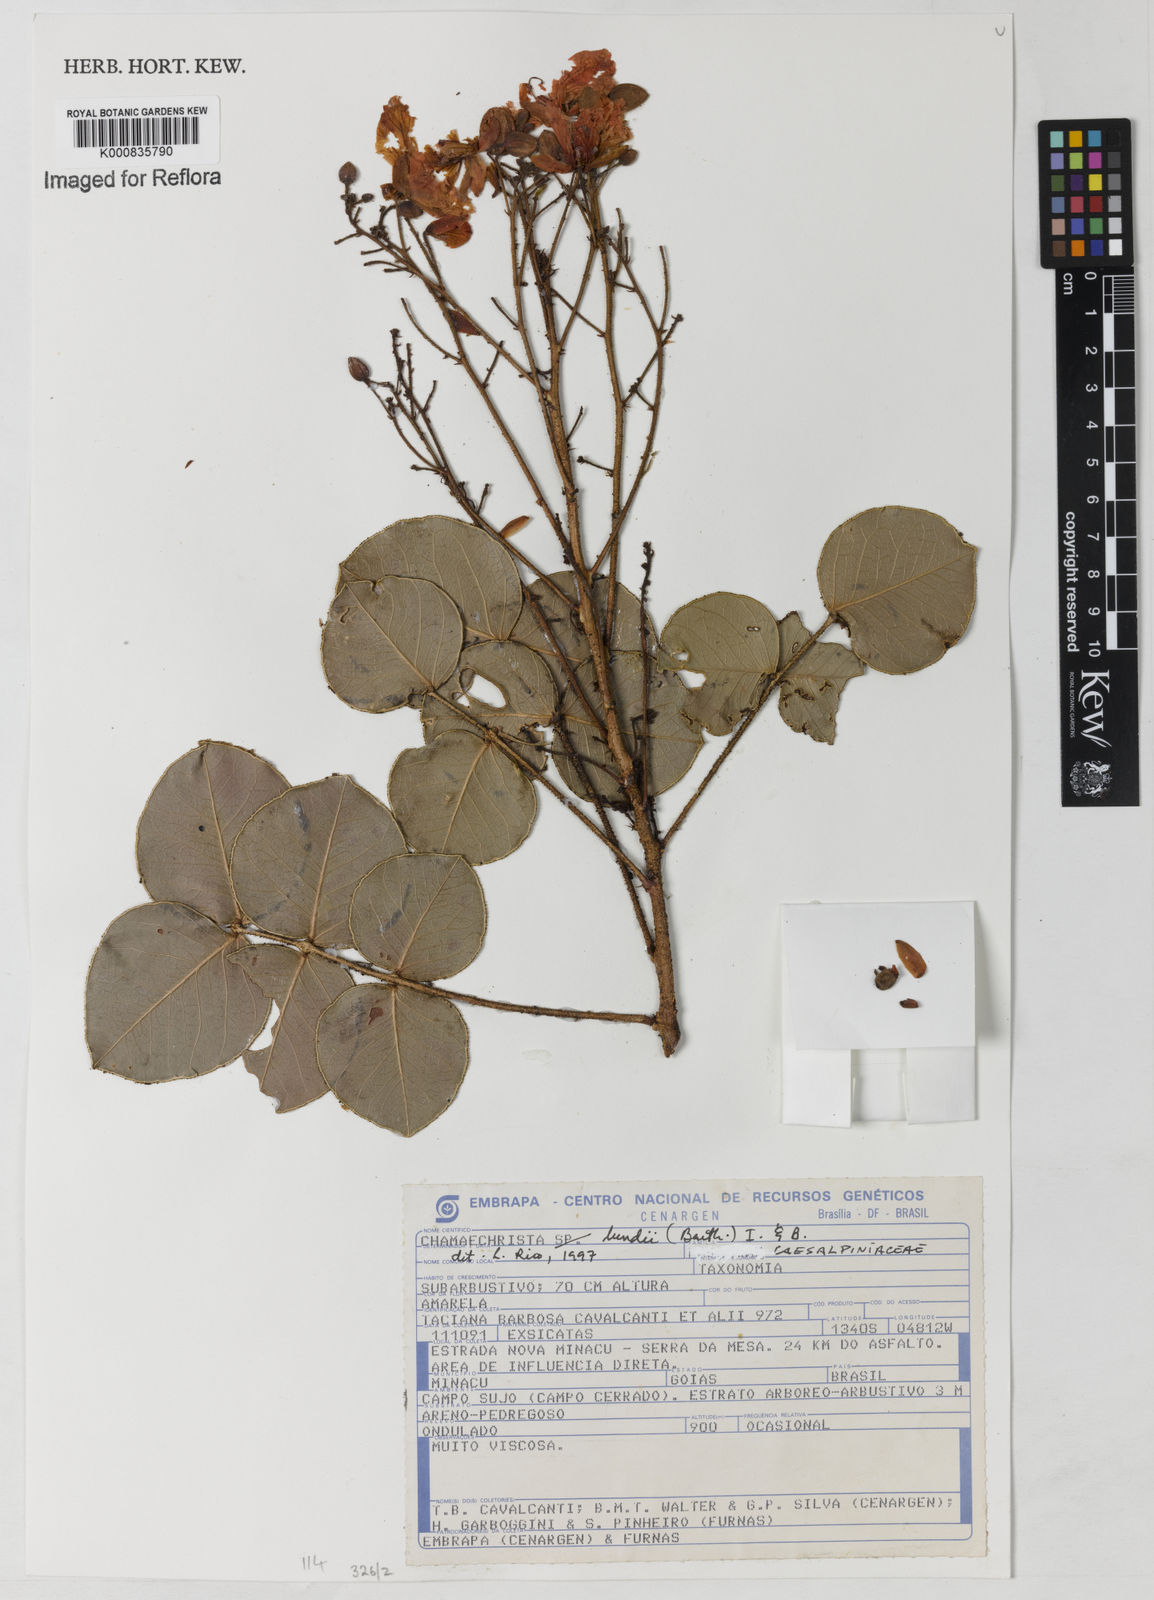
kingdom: Plantae
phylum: Tracheophyta
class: Magnoliopsida
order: Fabales
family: Fabaceae
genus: Chamaecrista
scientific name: Chamaecrista lundii
